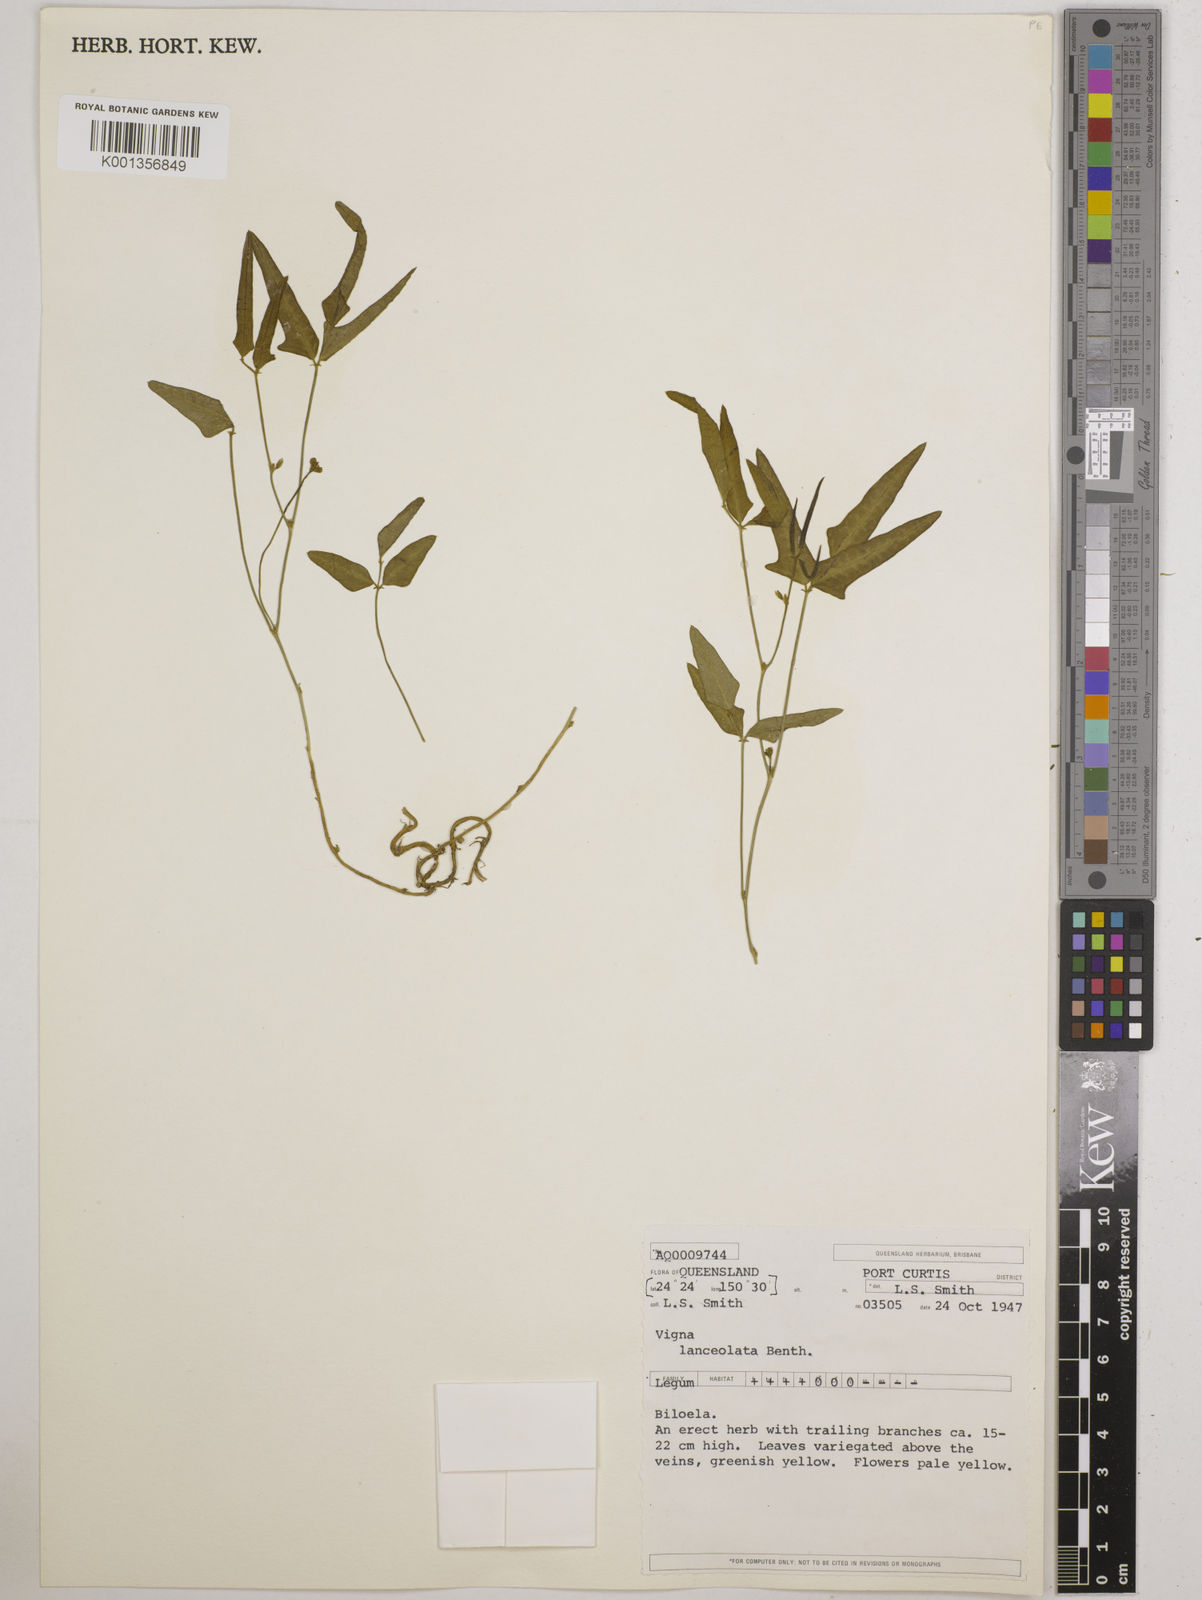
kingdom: Plantae
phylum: Tracheophyta
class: Magnoliopsida
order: Fabales
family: Fabaceae
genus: Vigna
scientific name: Vigna lanceolata
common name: Maloga-bean
